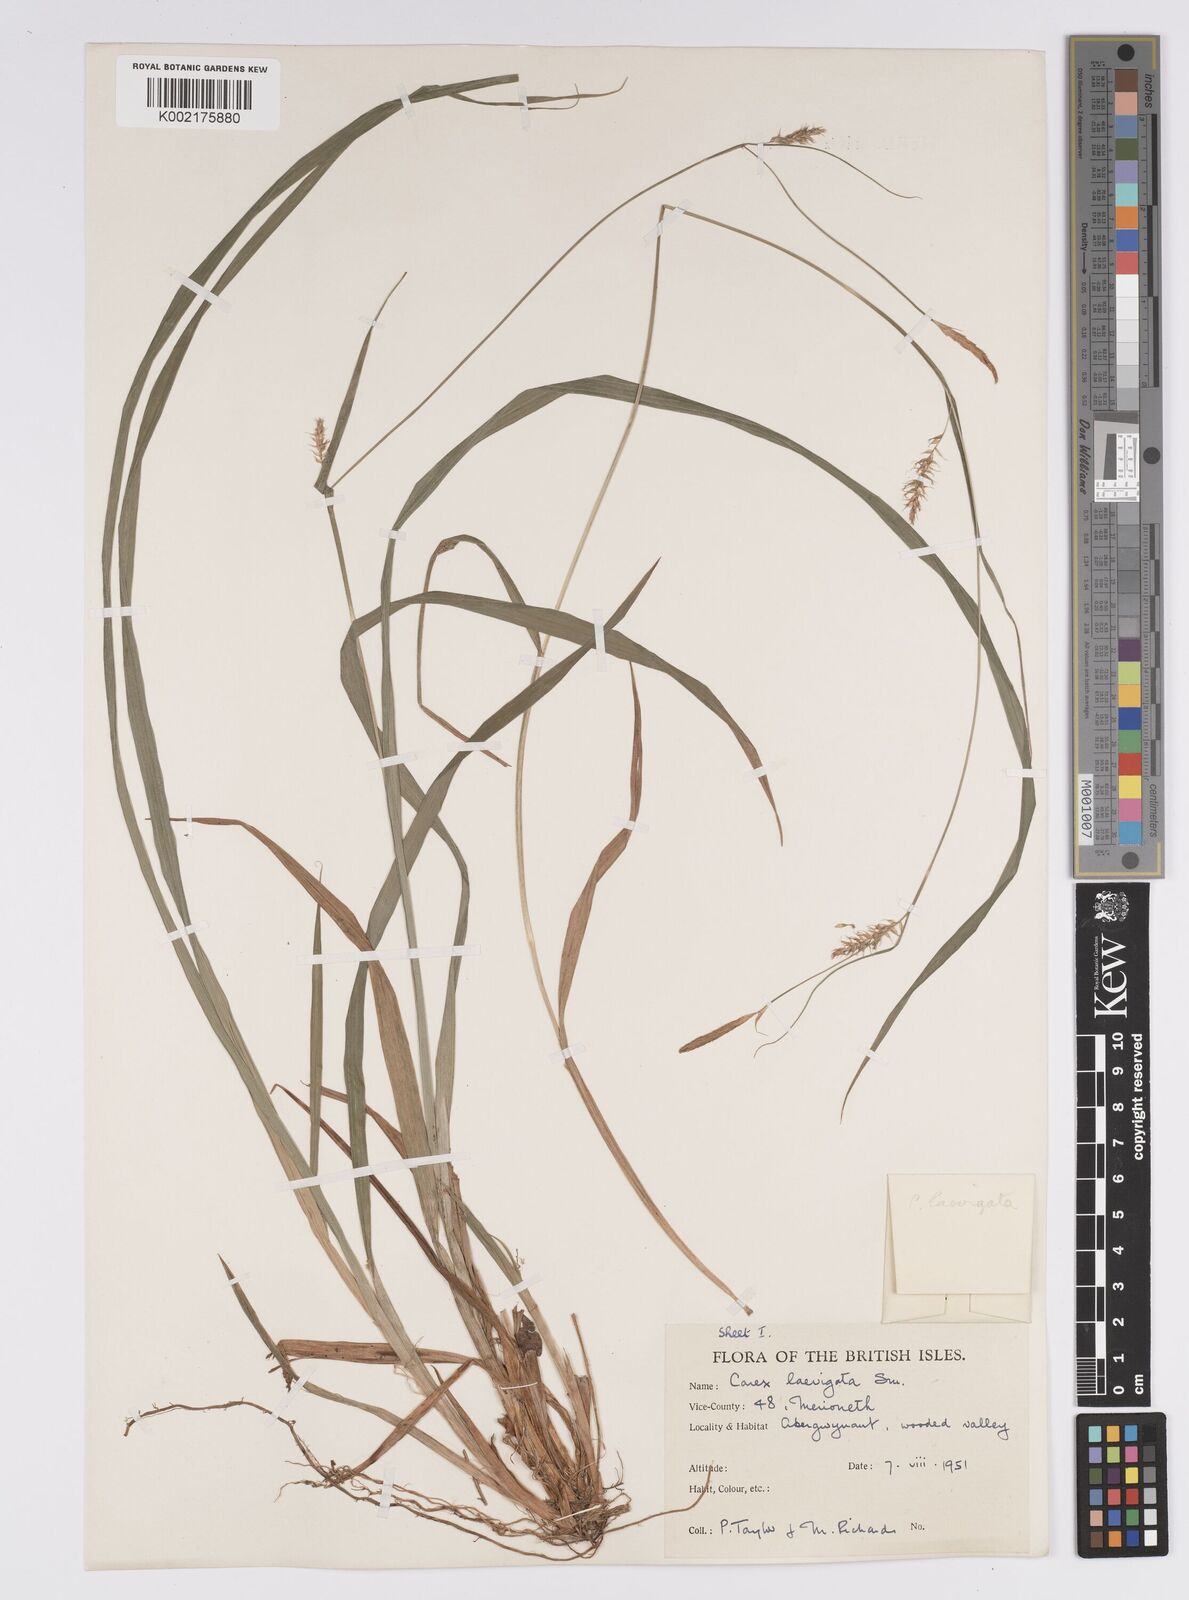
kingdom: Plantae
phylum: Tracheophyta
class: Liliopsida
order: Poales
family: Cyperaceae
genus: Carex
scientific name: Carex laevigata
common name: Smooth-stalked sedge
